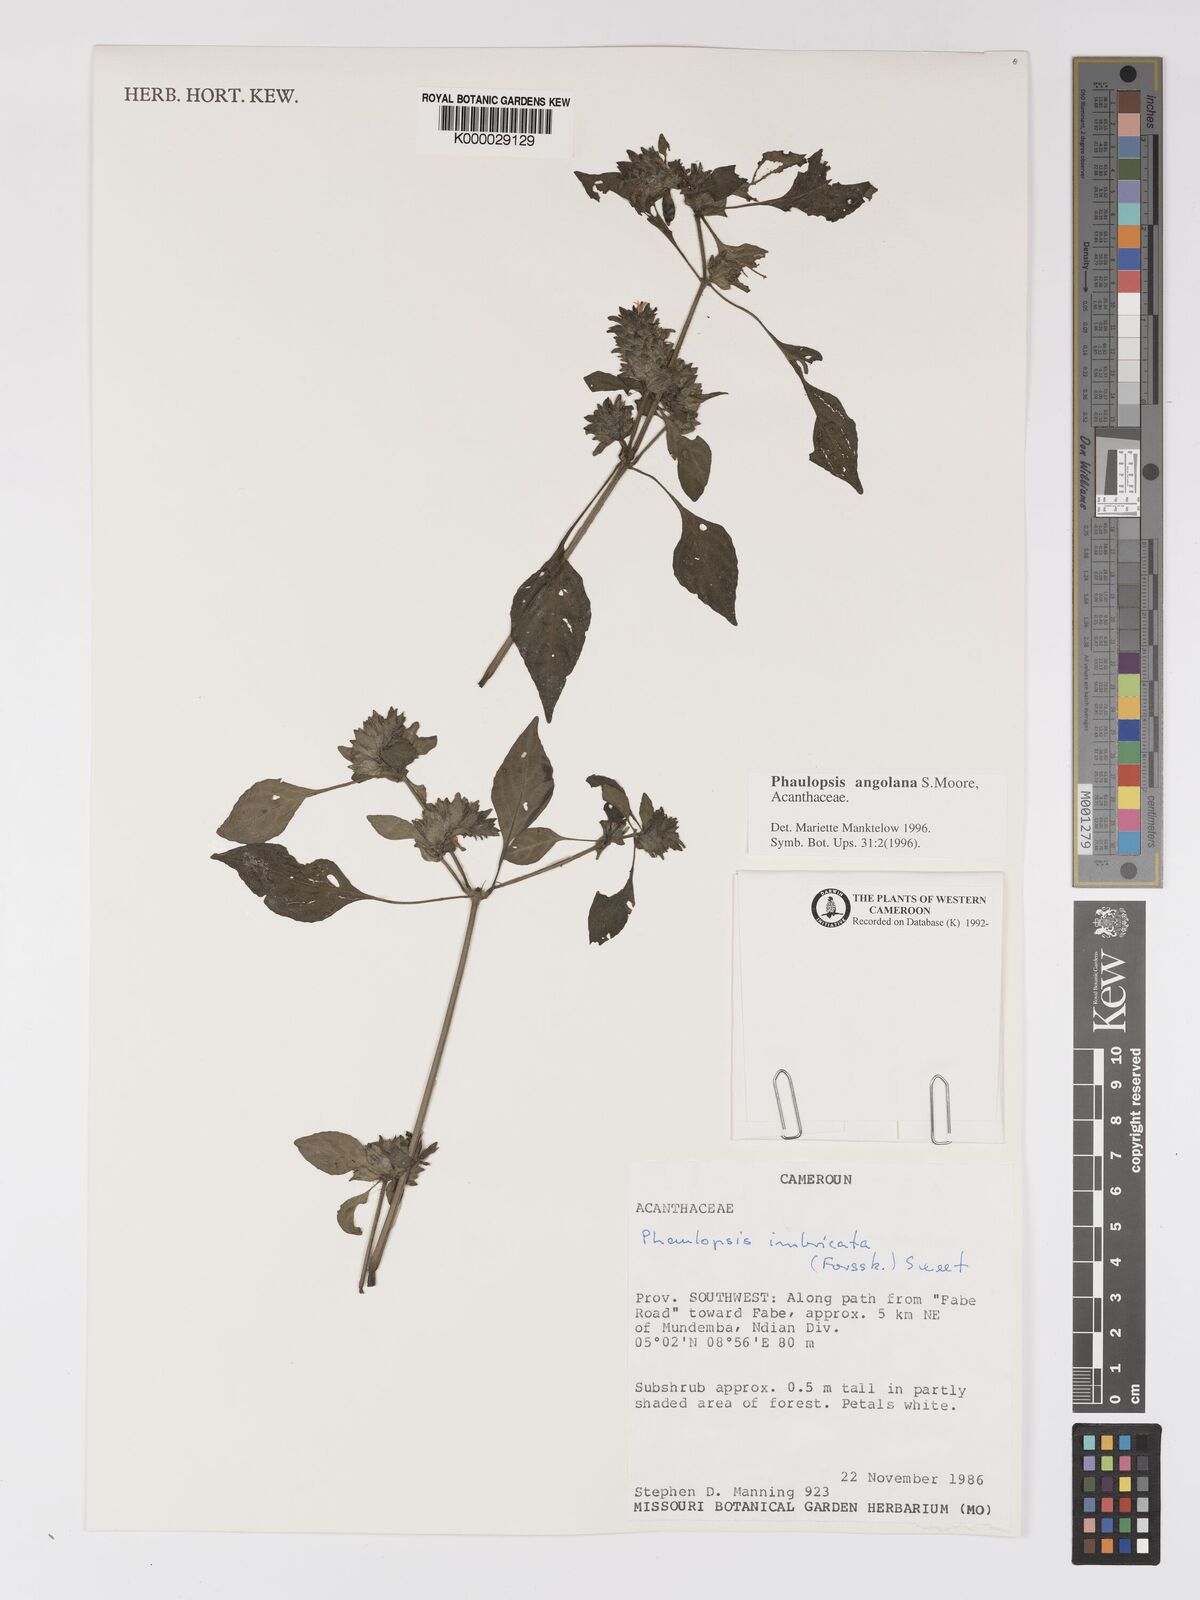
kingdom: Plantae
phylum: Tracheophyta
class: Magnoliopsida
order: Lamiales
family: Acanthaceae
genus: Phaulopsis
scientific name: Phaulopsis angolana
